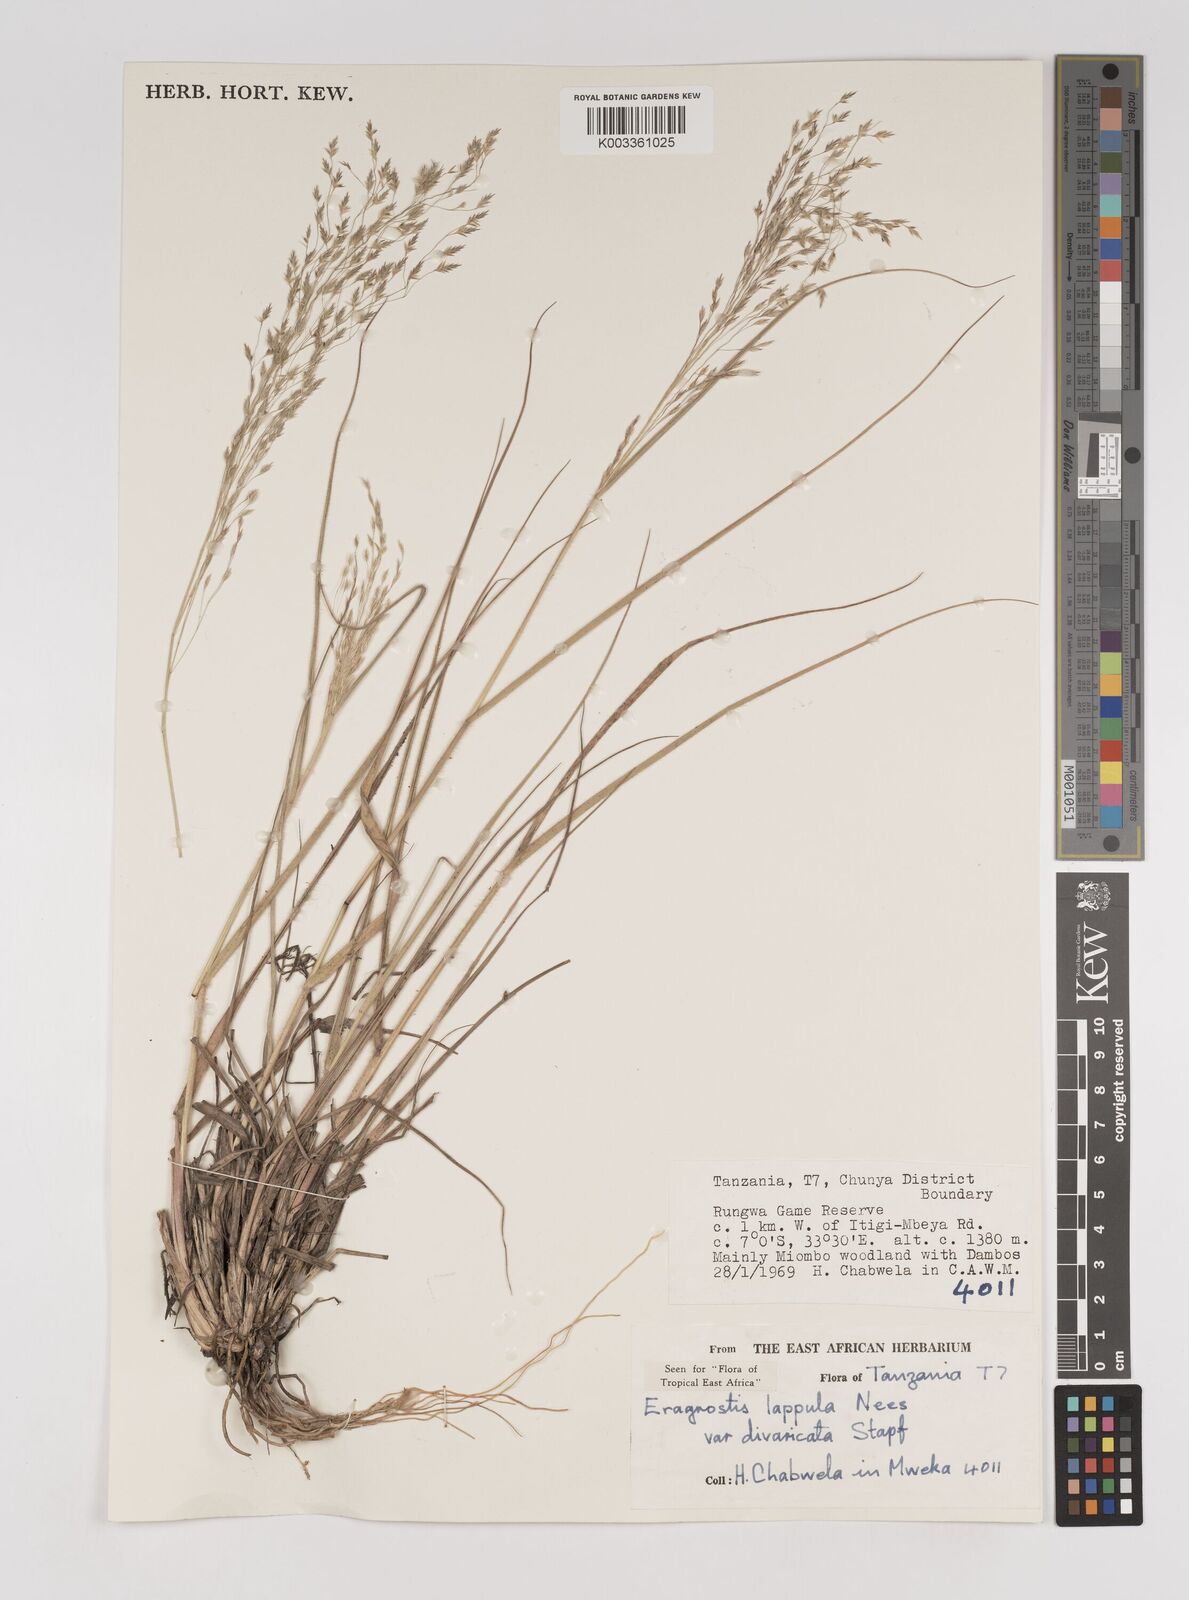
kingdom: Plantae
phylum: Tracheophyta
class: Liliopsida
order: Poales
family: Poaceae
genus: Eragrostis
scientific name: Eragrostis lappula
